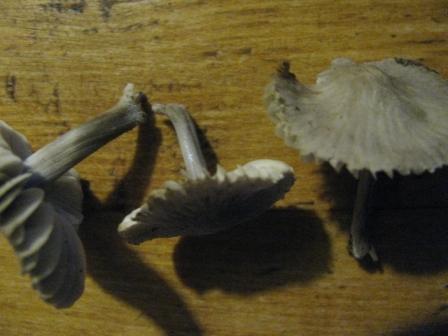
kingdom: Fungi
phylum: Basidiomycota
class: Agaricomycetes
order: Agaricales
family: Mycenaceae
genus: Mycena
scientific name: Mycena abramsii
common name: sommer-huesvamp
